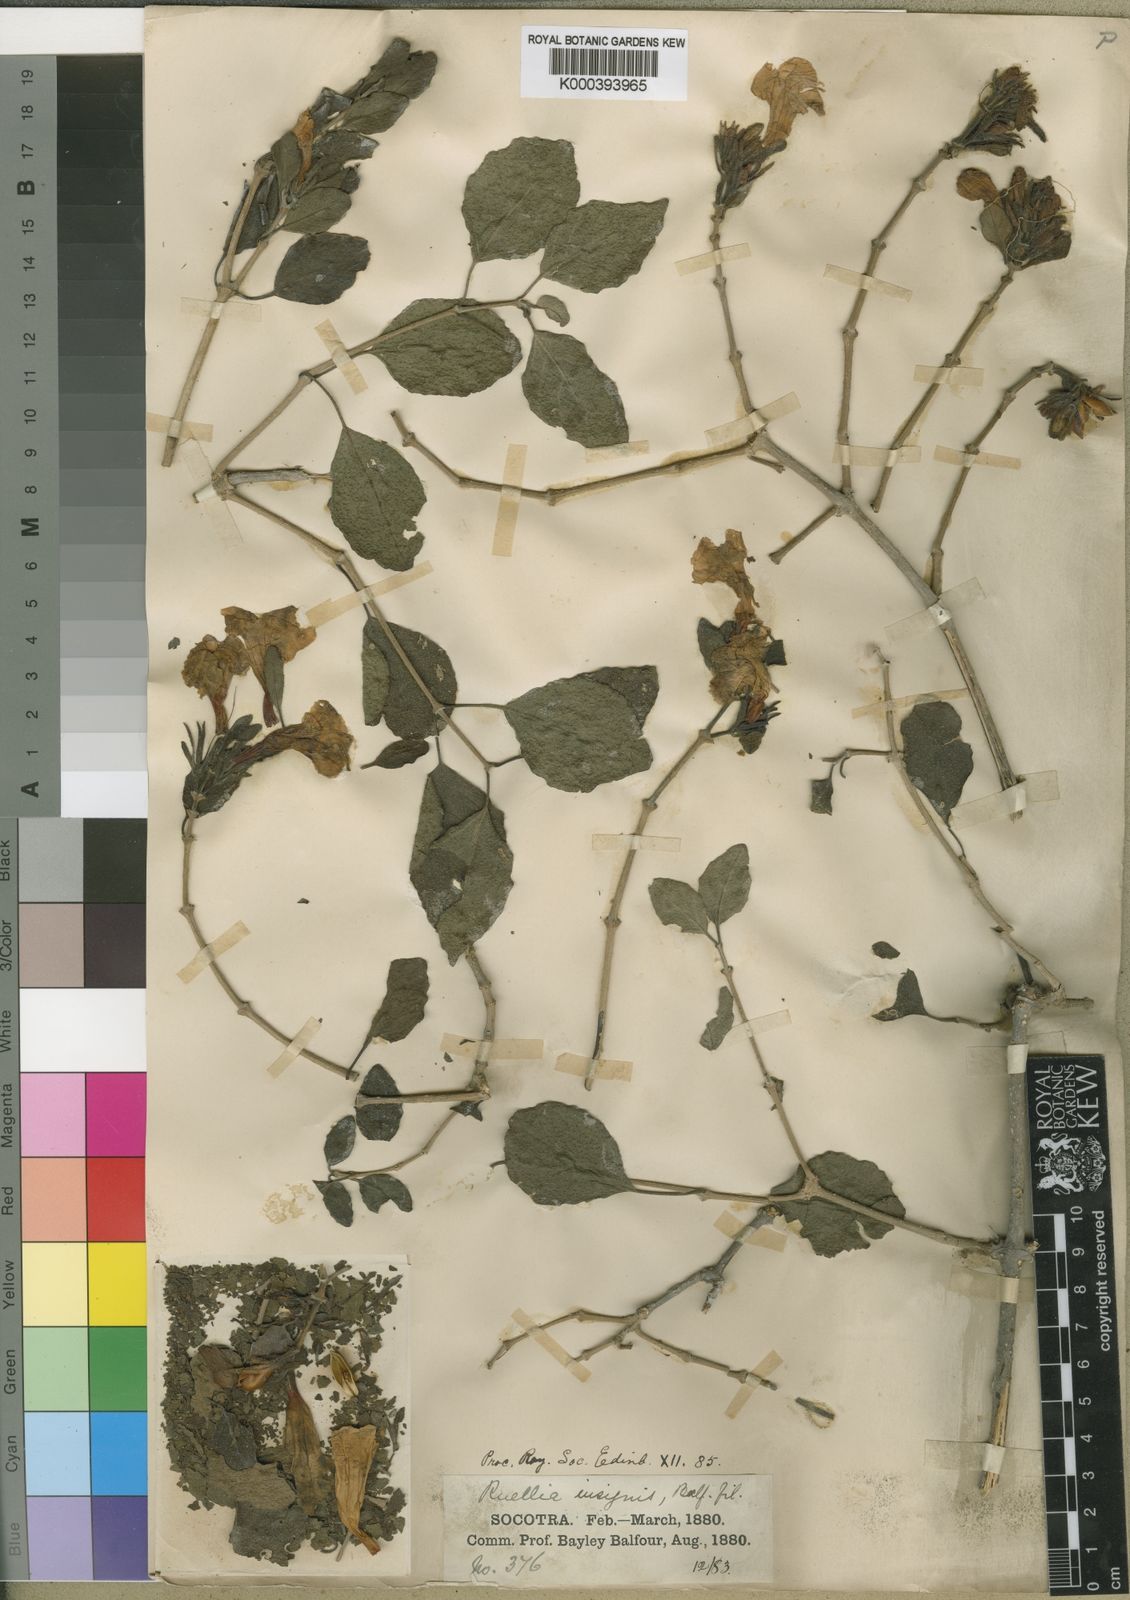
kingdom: Plantae
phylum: Tracheophyta
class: Magnoliopsida
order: Lamiales
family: Acanthaceae
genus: Ruellia
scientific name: Ruellia insignis
